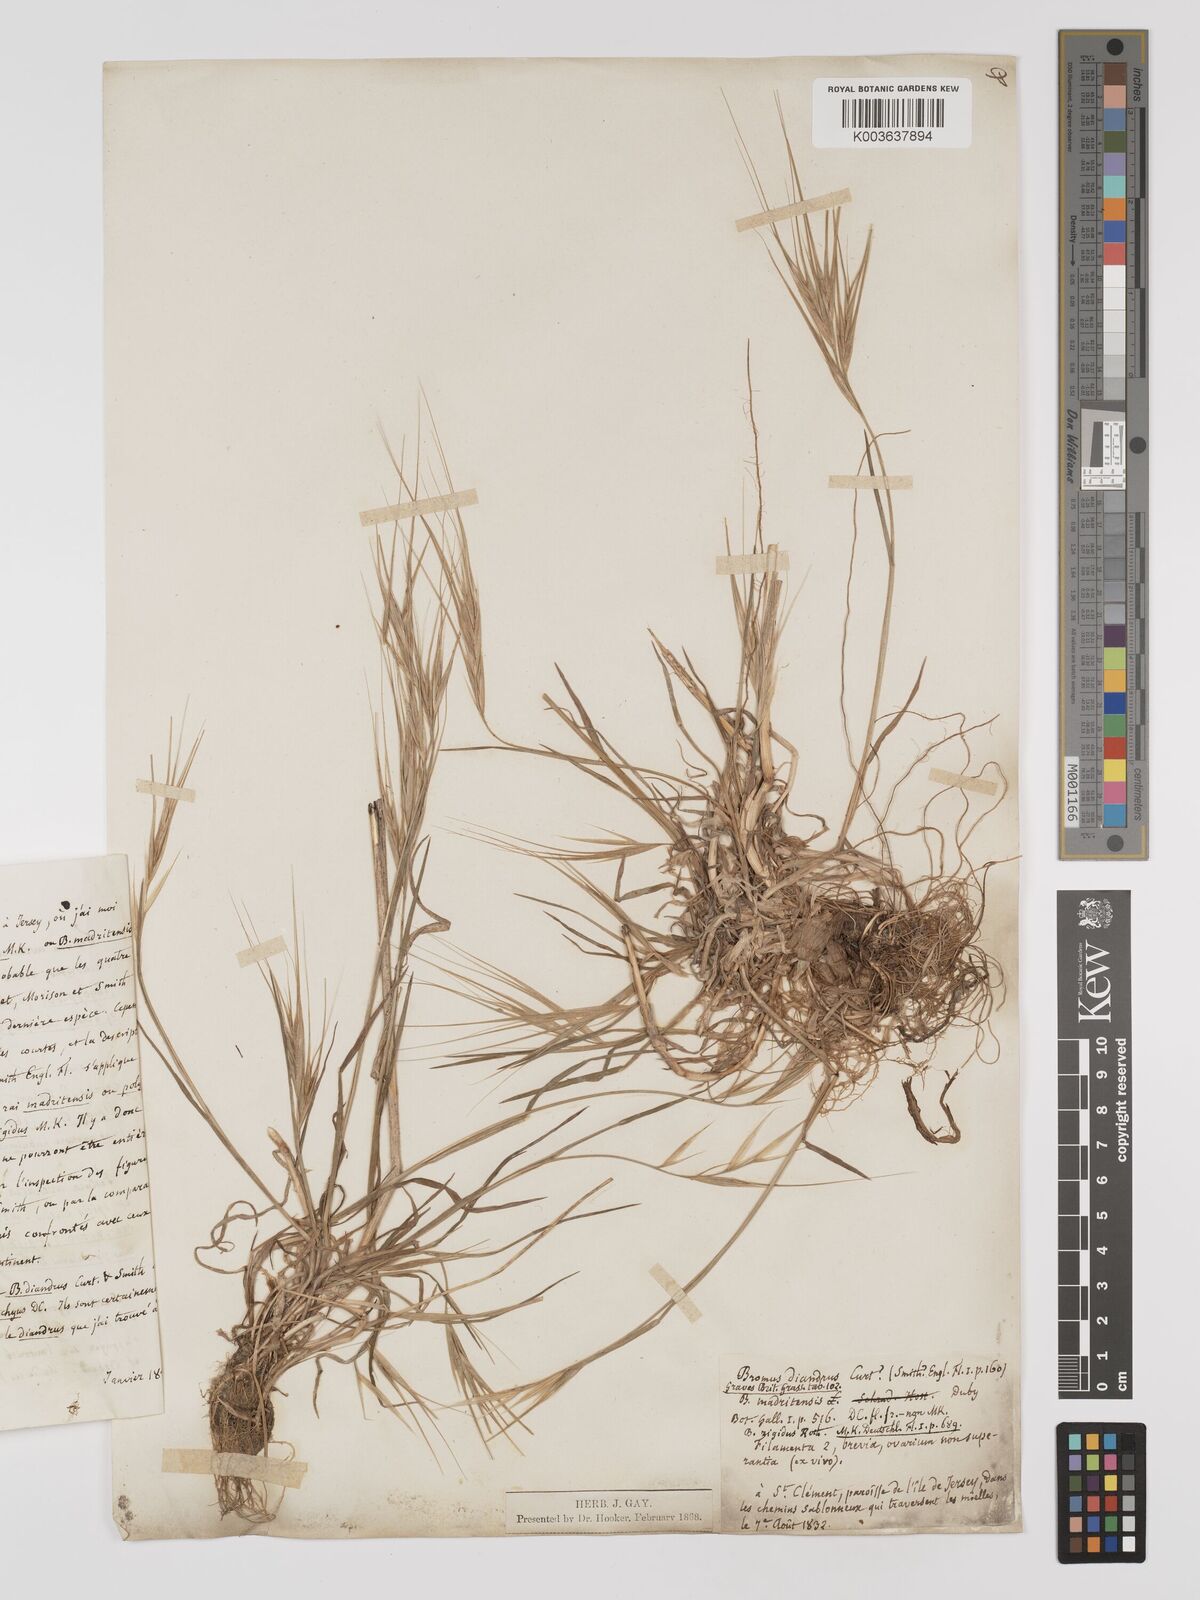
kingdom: Plantae
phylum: Tracheophyta
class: Liliopsida
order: Poales
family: Poaceae
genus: Bromus
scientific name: Bromus
